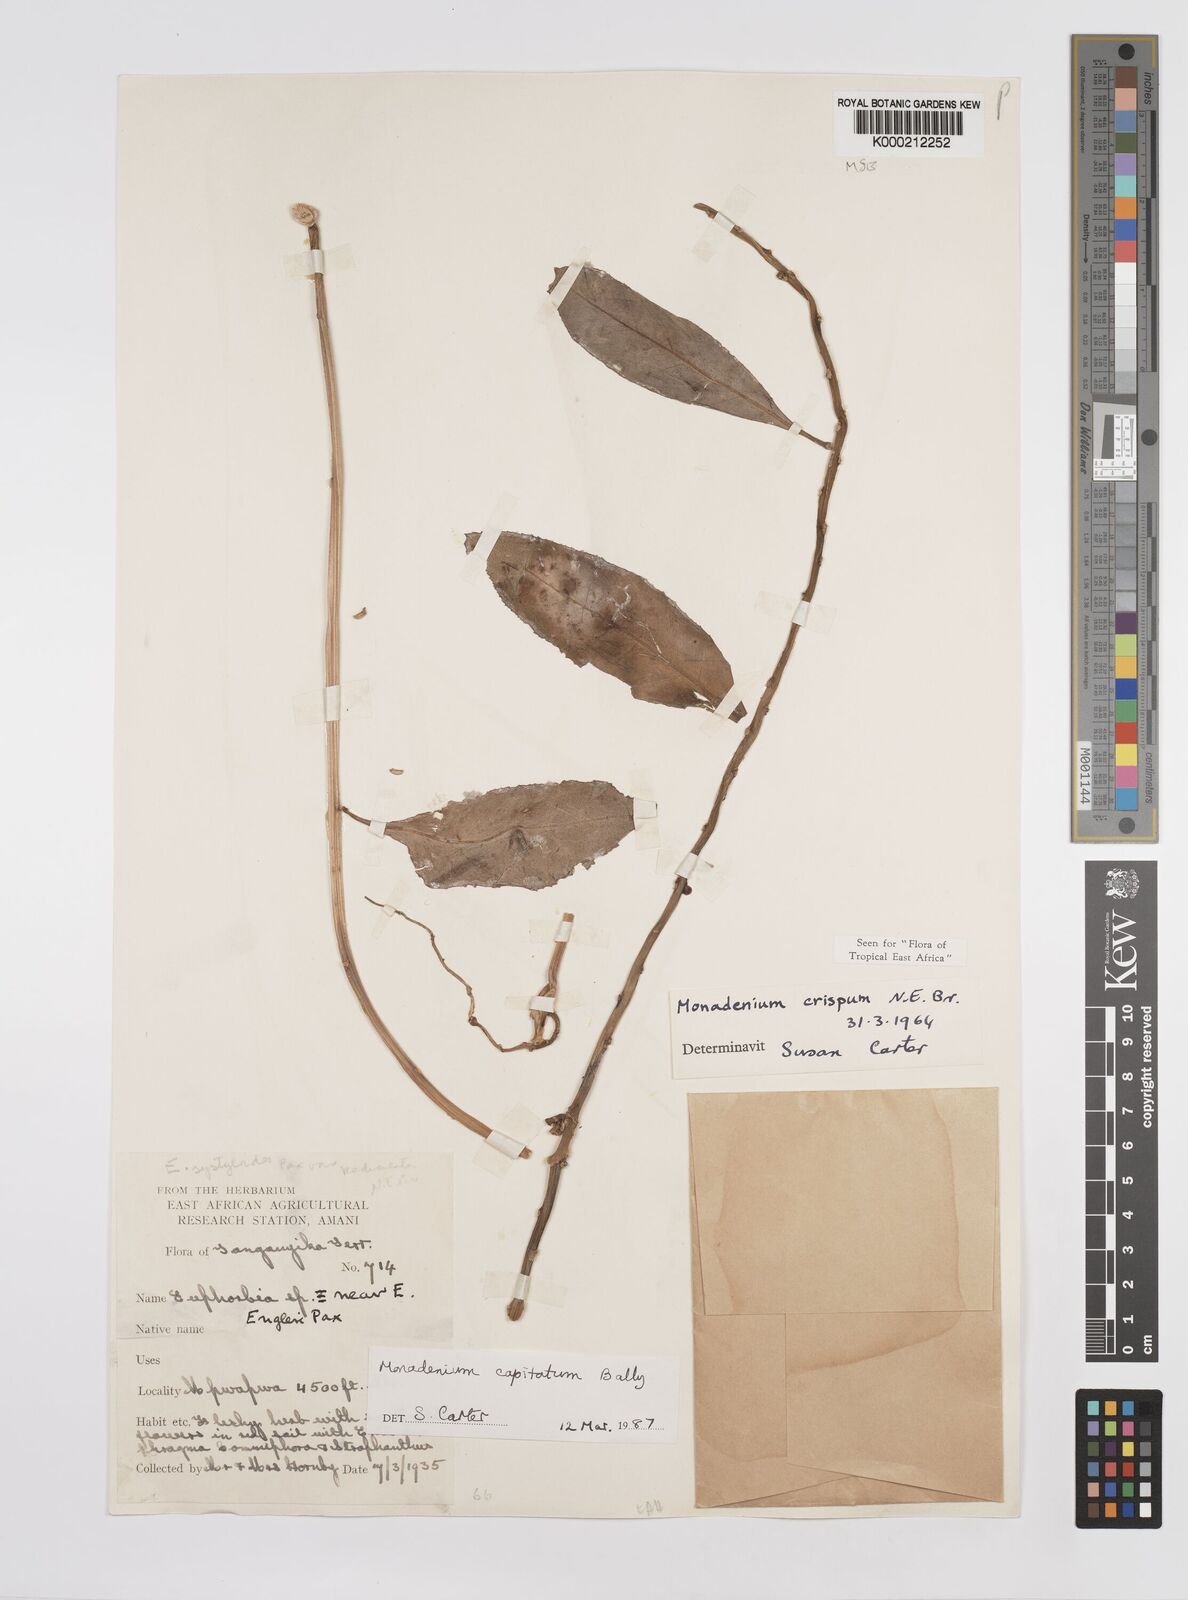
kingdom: Plantae
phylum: Tracheophyta
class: Magnoliopsida
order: Malpighiales
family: Euphorbiaceae
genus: Euphorbia
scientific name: Euphorbia neocapitata
